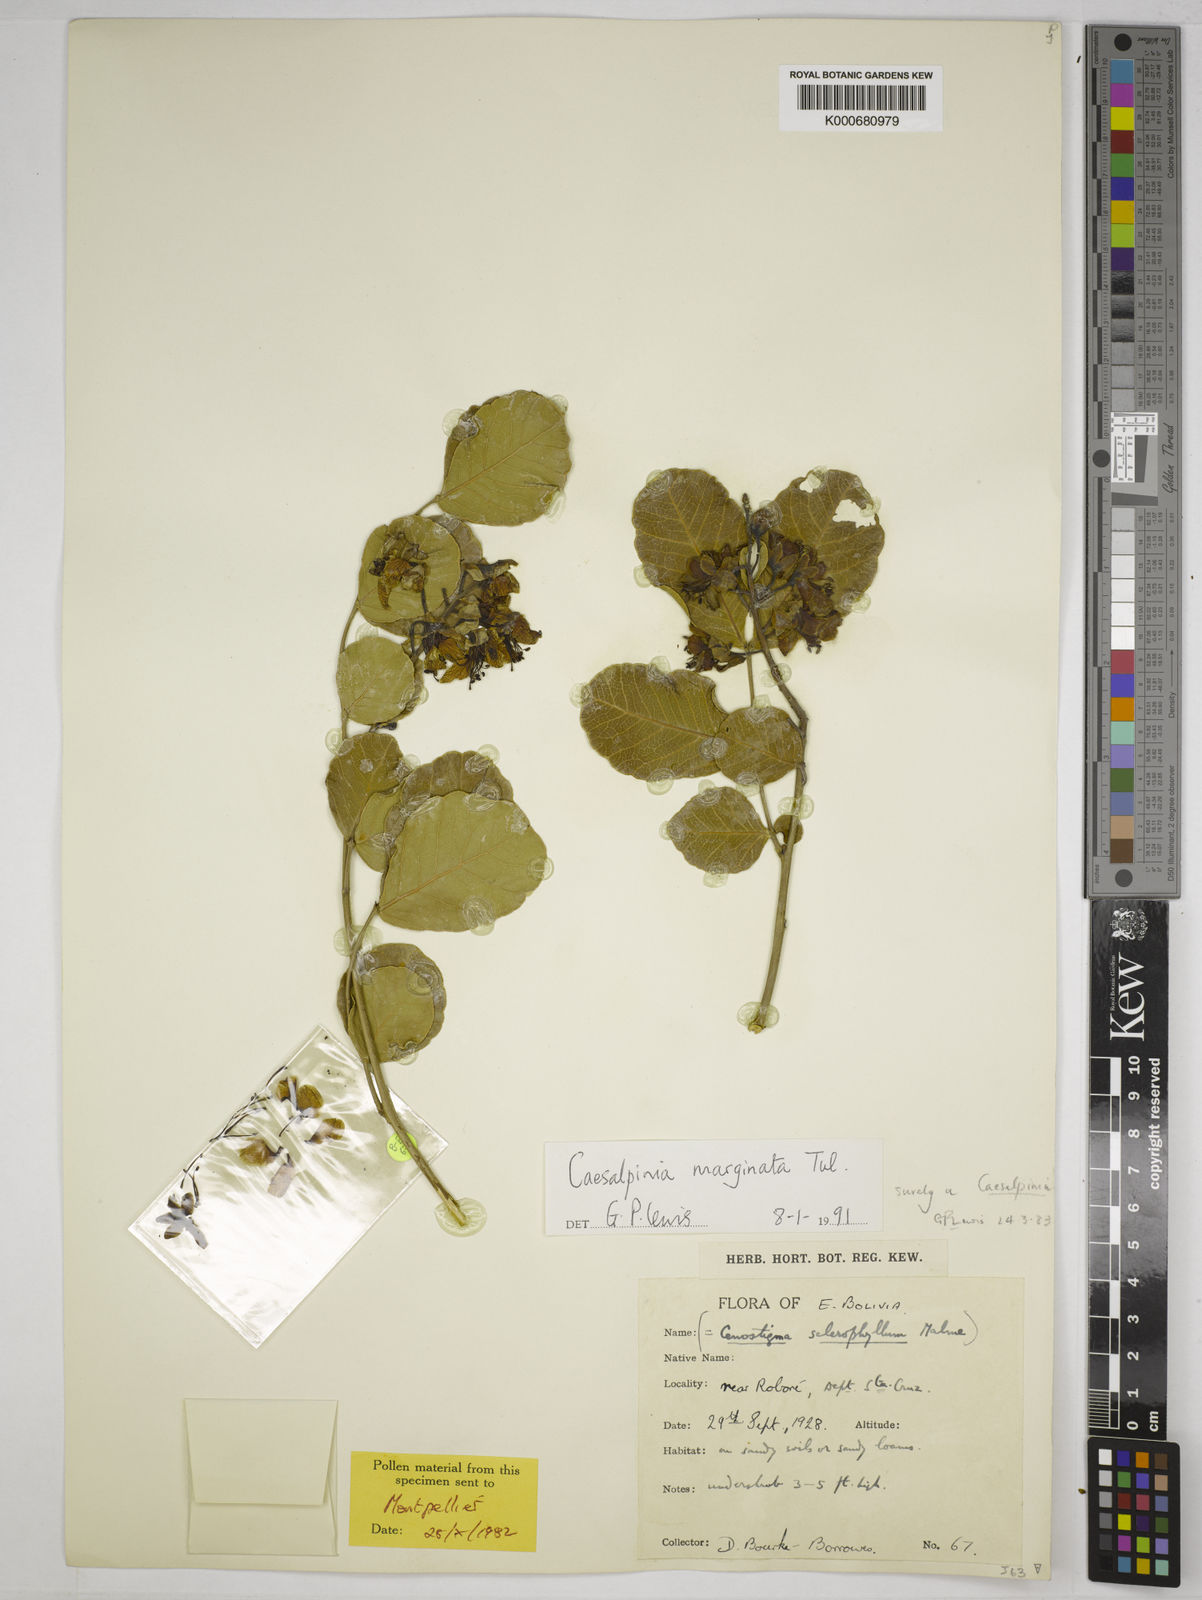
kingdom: Plantae
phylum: Tracheophyta
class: Magnoliopsida
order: Fabales
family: Fabaceae
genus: Cenostigma
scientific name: Cenostigma marginatum
